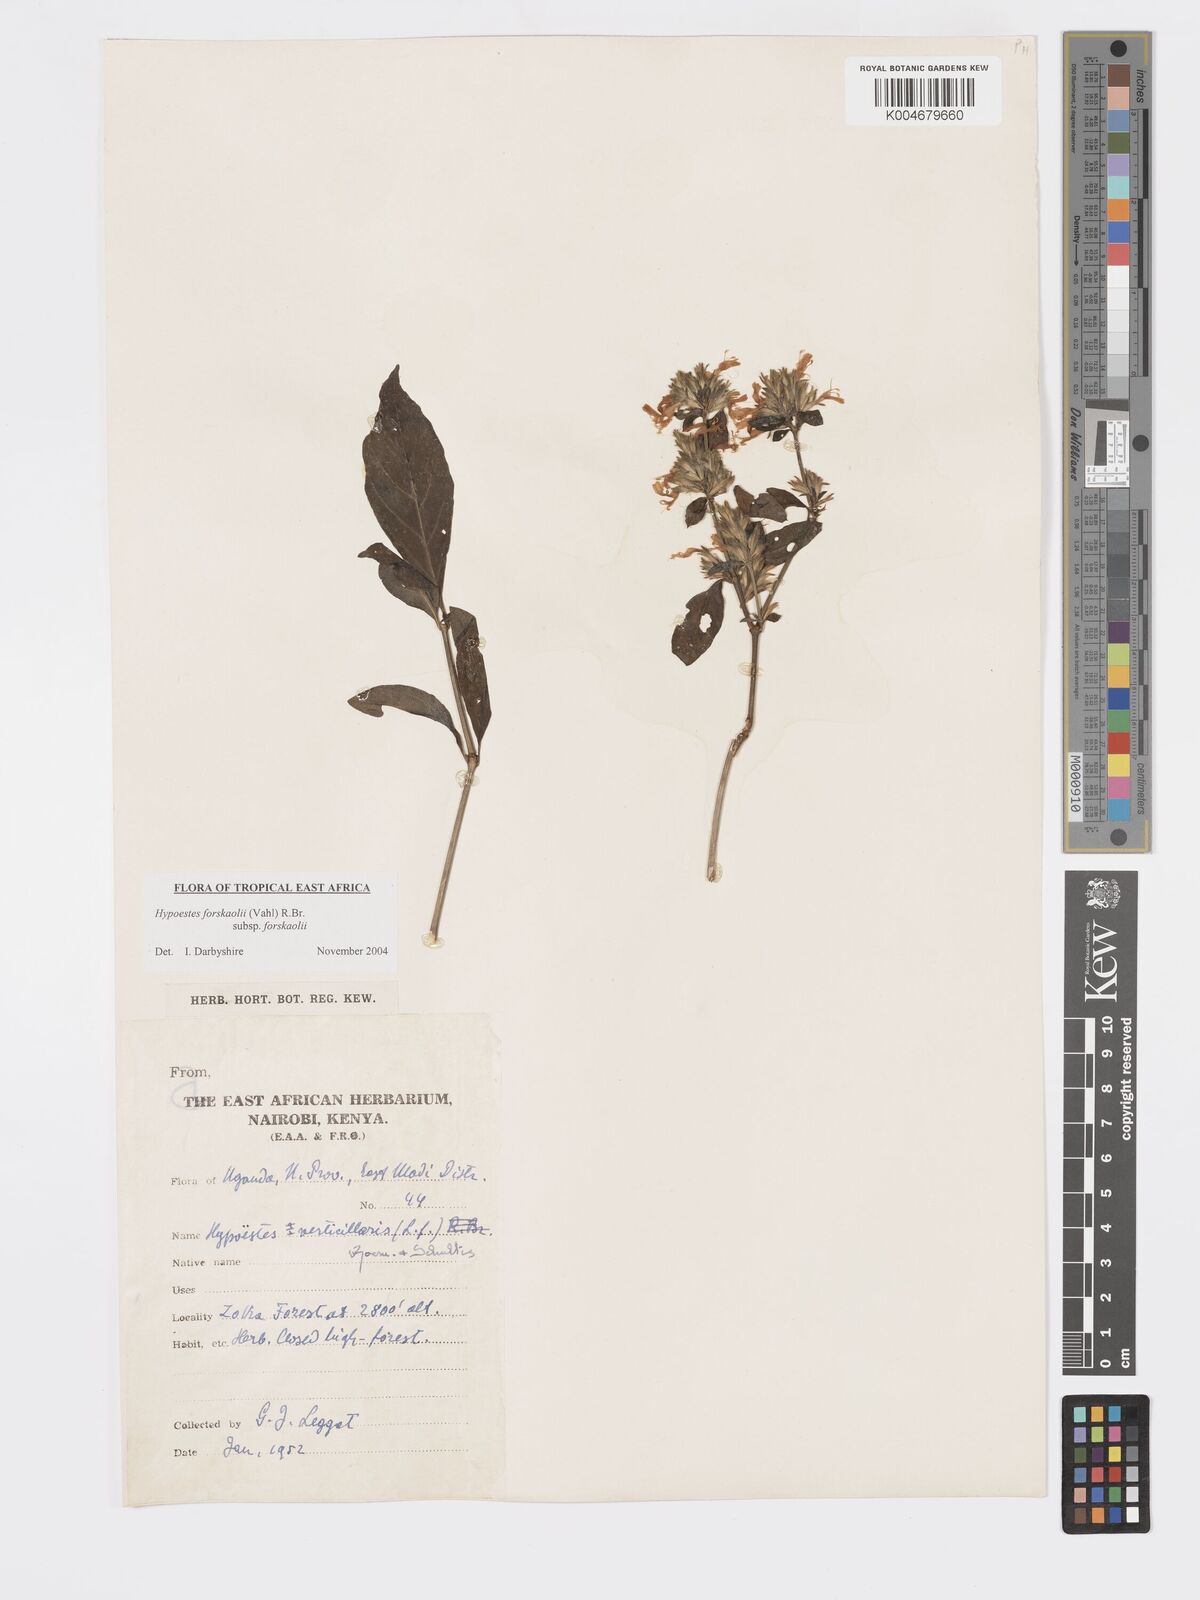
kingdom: Plantae
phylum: Tracheophyta
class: Magnoliopsida
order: Lamiales
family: Acanthaceae
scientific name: Acanthaceae
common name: Acanthaceae
